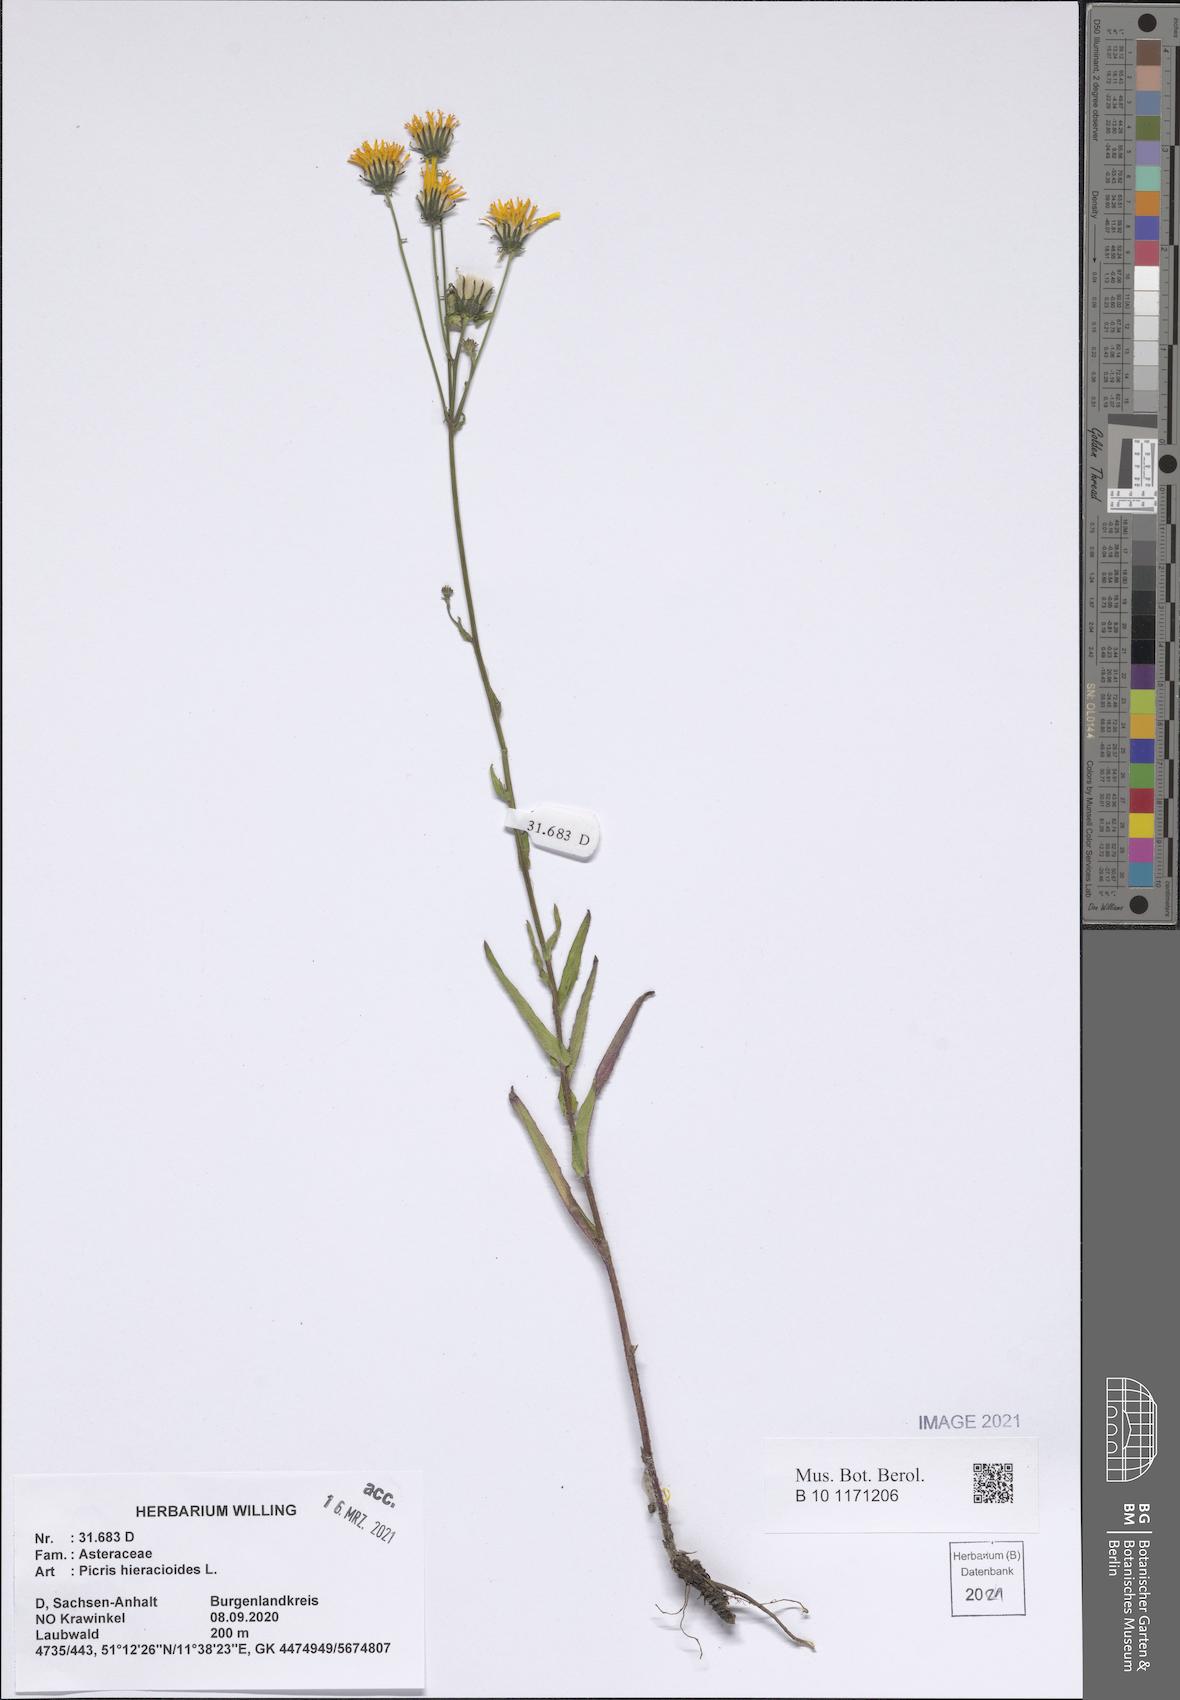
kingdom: Plantae
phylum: Tracheophyta
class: Magnoliopsida
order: Asterales
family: Asteraceae
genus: Picris
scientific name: Picris hieracioides
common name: Hawkweed oxtongue
